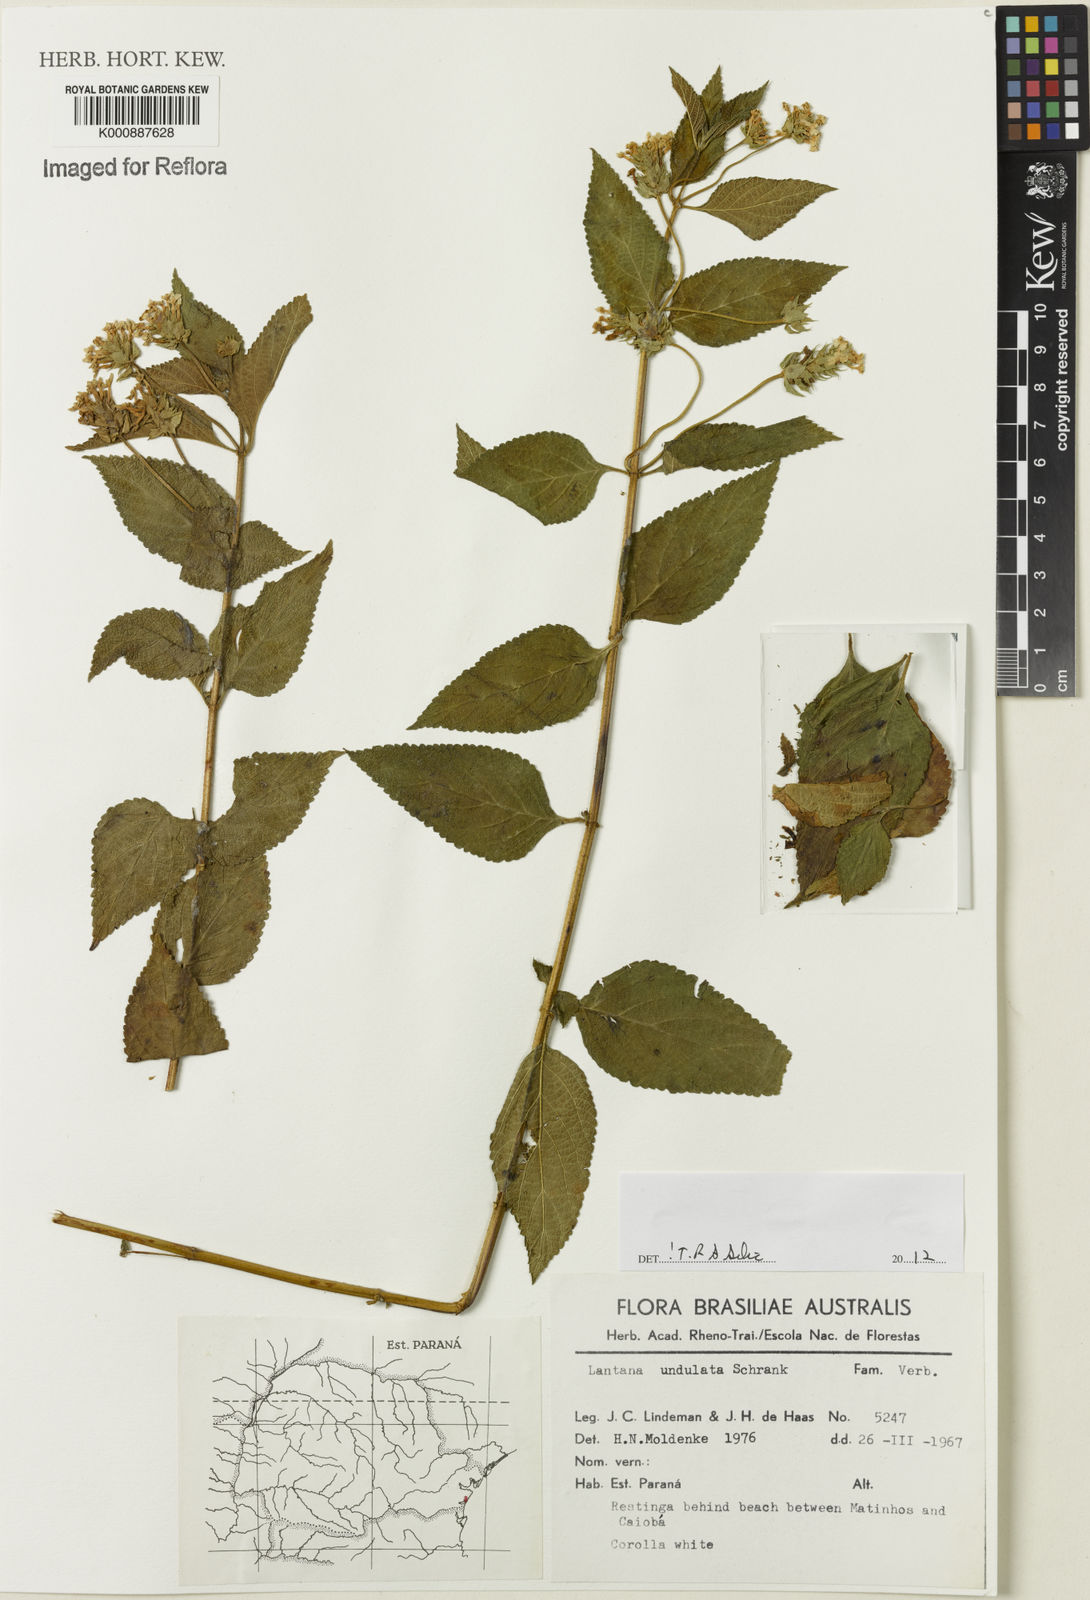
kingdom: Plantae
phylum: Tracheophyta
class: Magnoliopsida
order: Lamiales
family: Verbenaceae
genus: Lantana
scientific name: Lantana undulata
